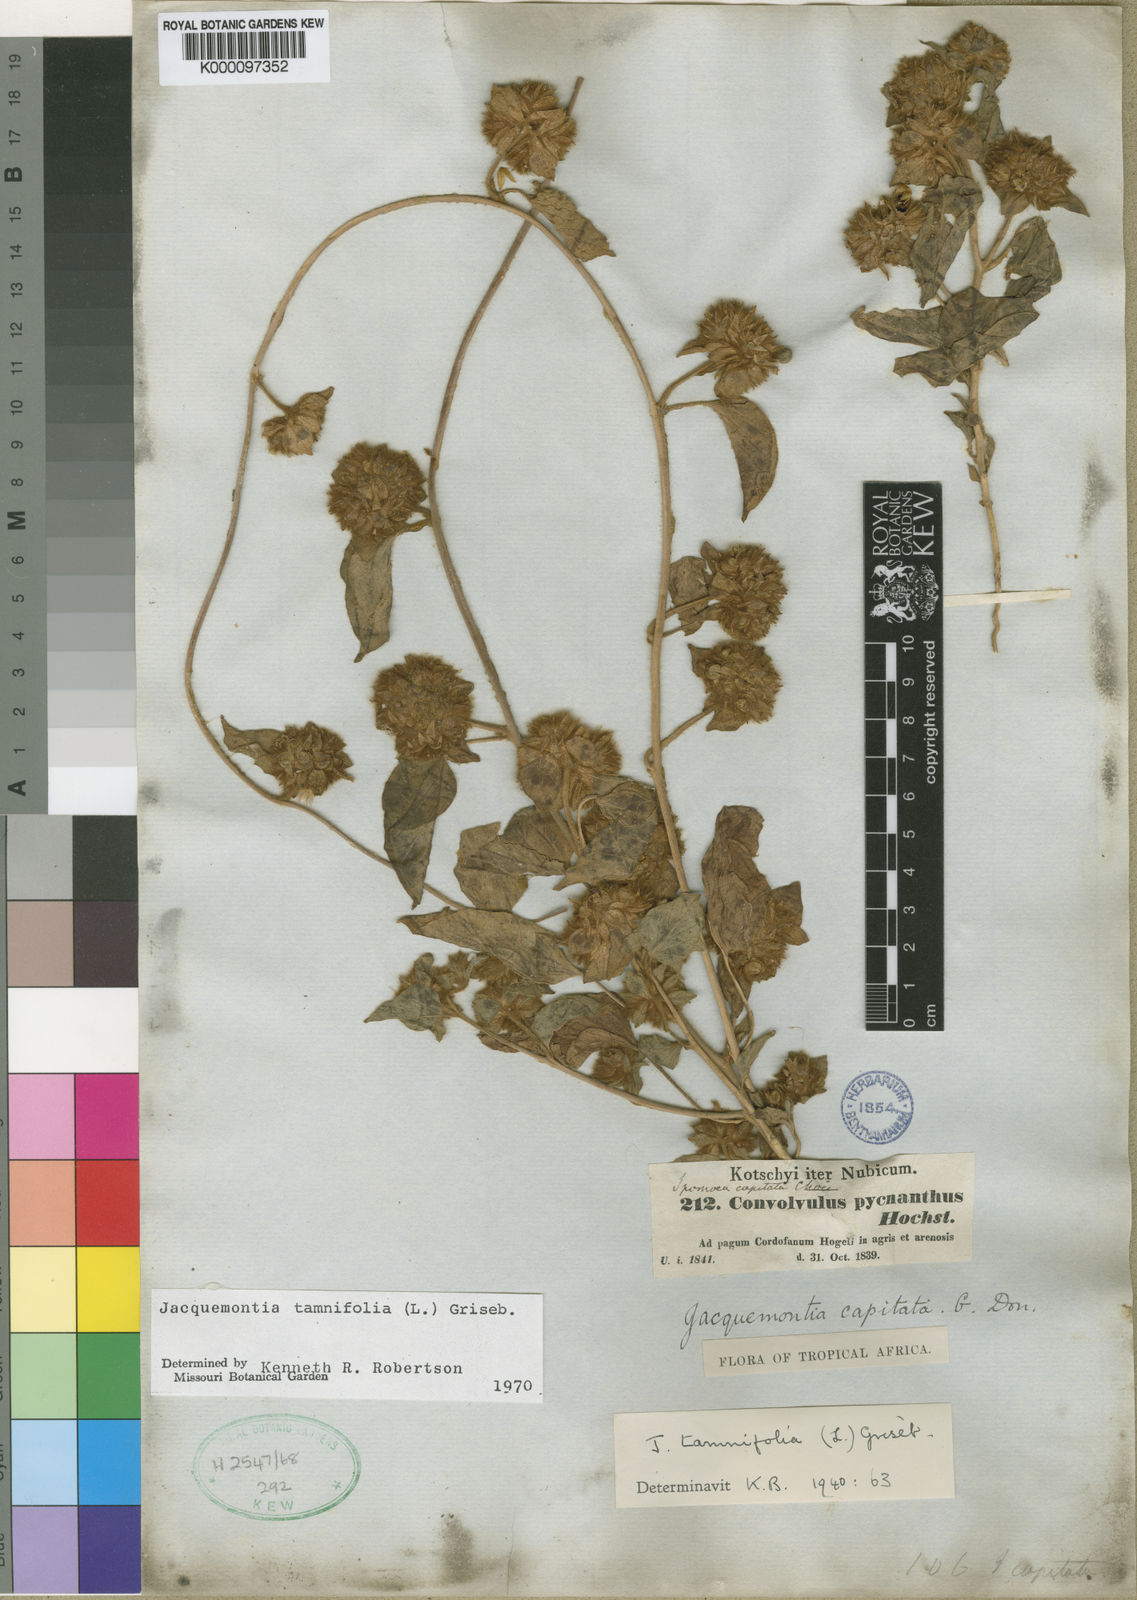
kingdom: Plantae
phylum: Tracheophyta
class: Magnoliopsida
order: Solanales
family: Convolvulaceae
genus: Jacquemontia
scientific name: Jacquemontia tamnifolia
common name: Hairy clustervine
